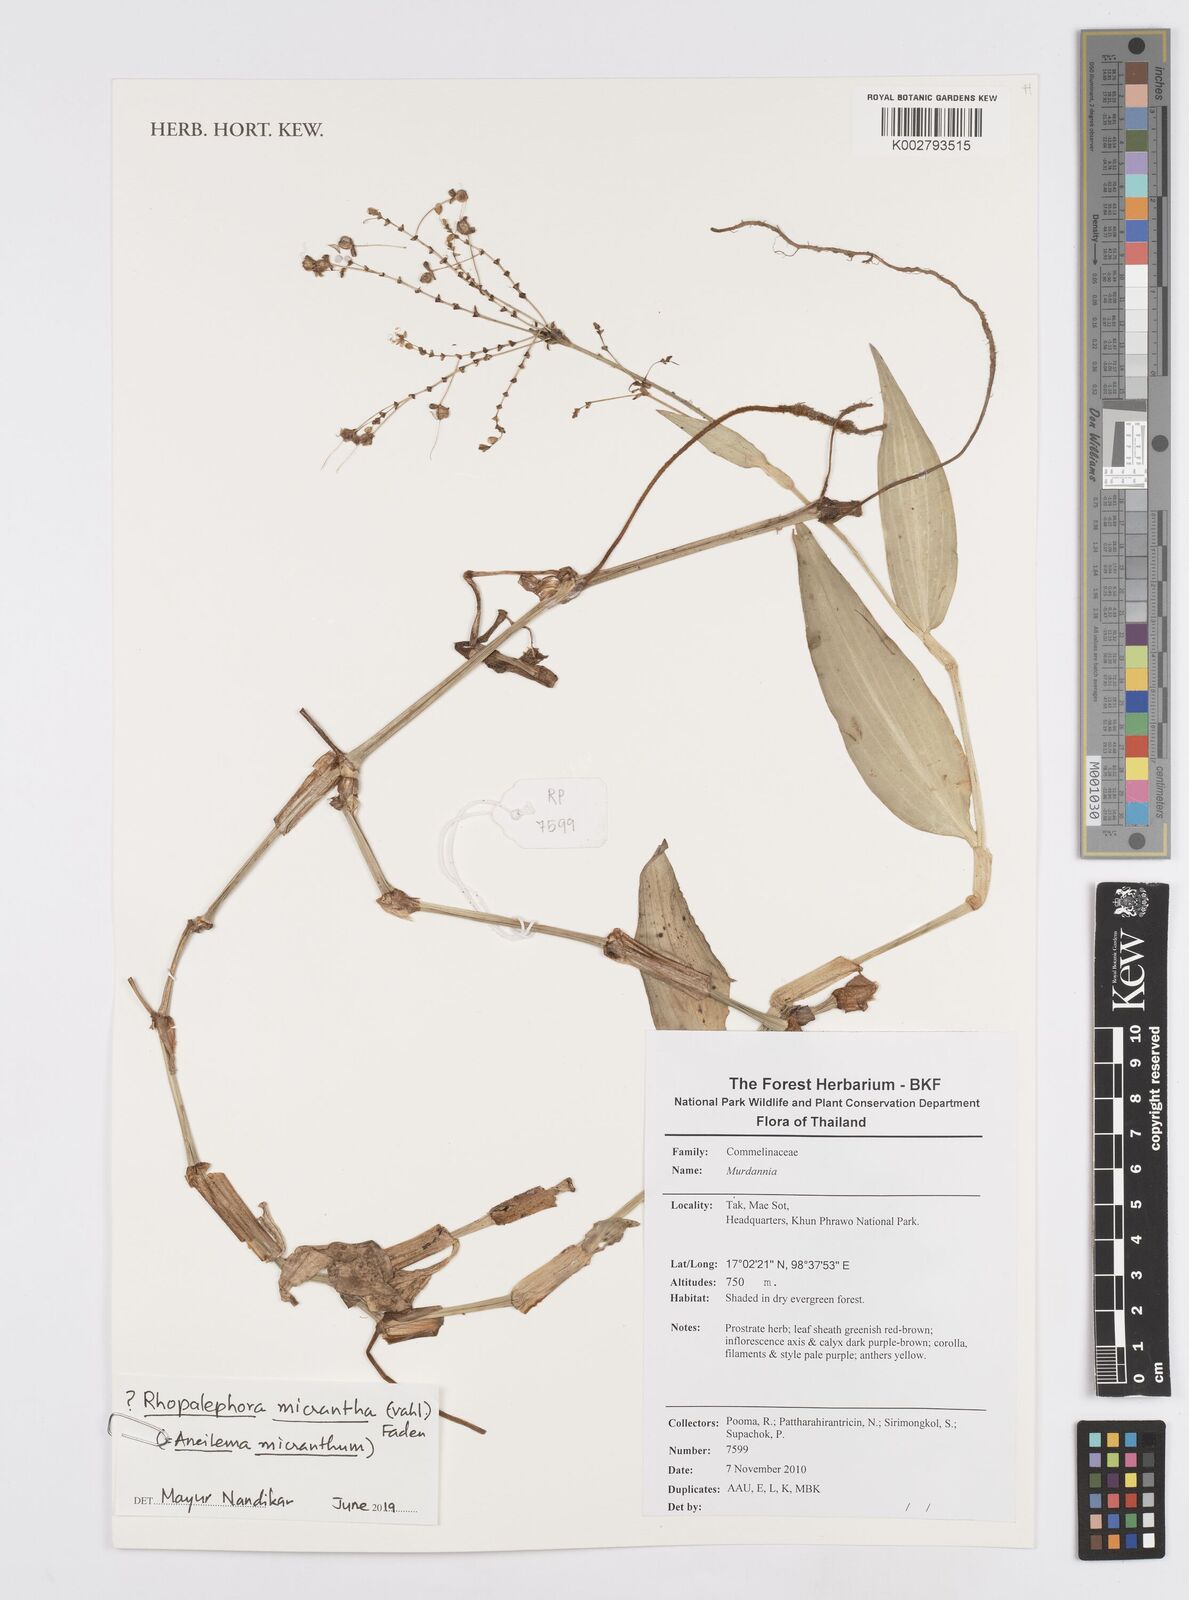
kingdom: Plantae
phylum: Tracheophyta
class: Liliopsida
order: Commelinales
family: Commelinaceae
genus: Murdannia
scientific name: Murdannia
